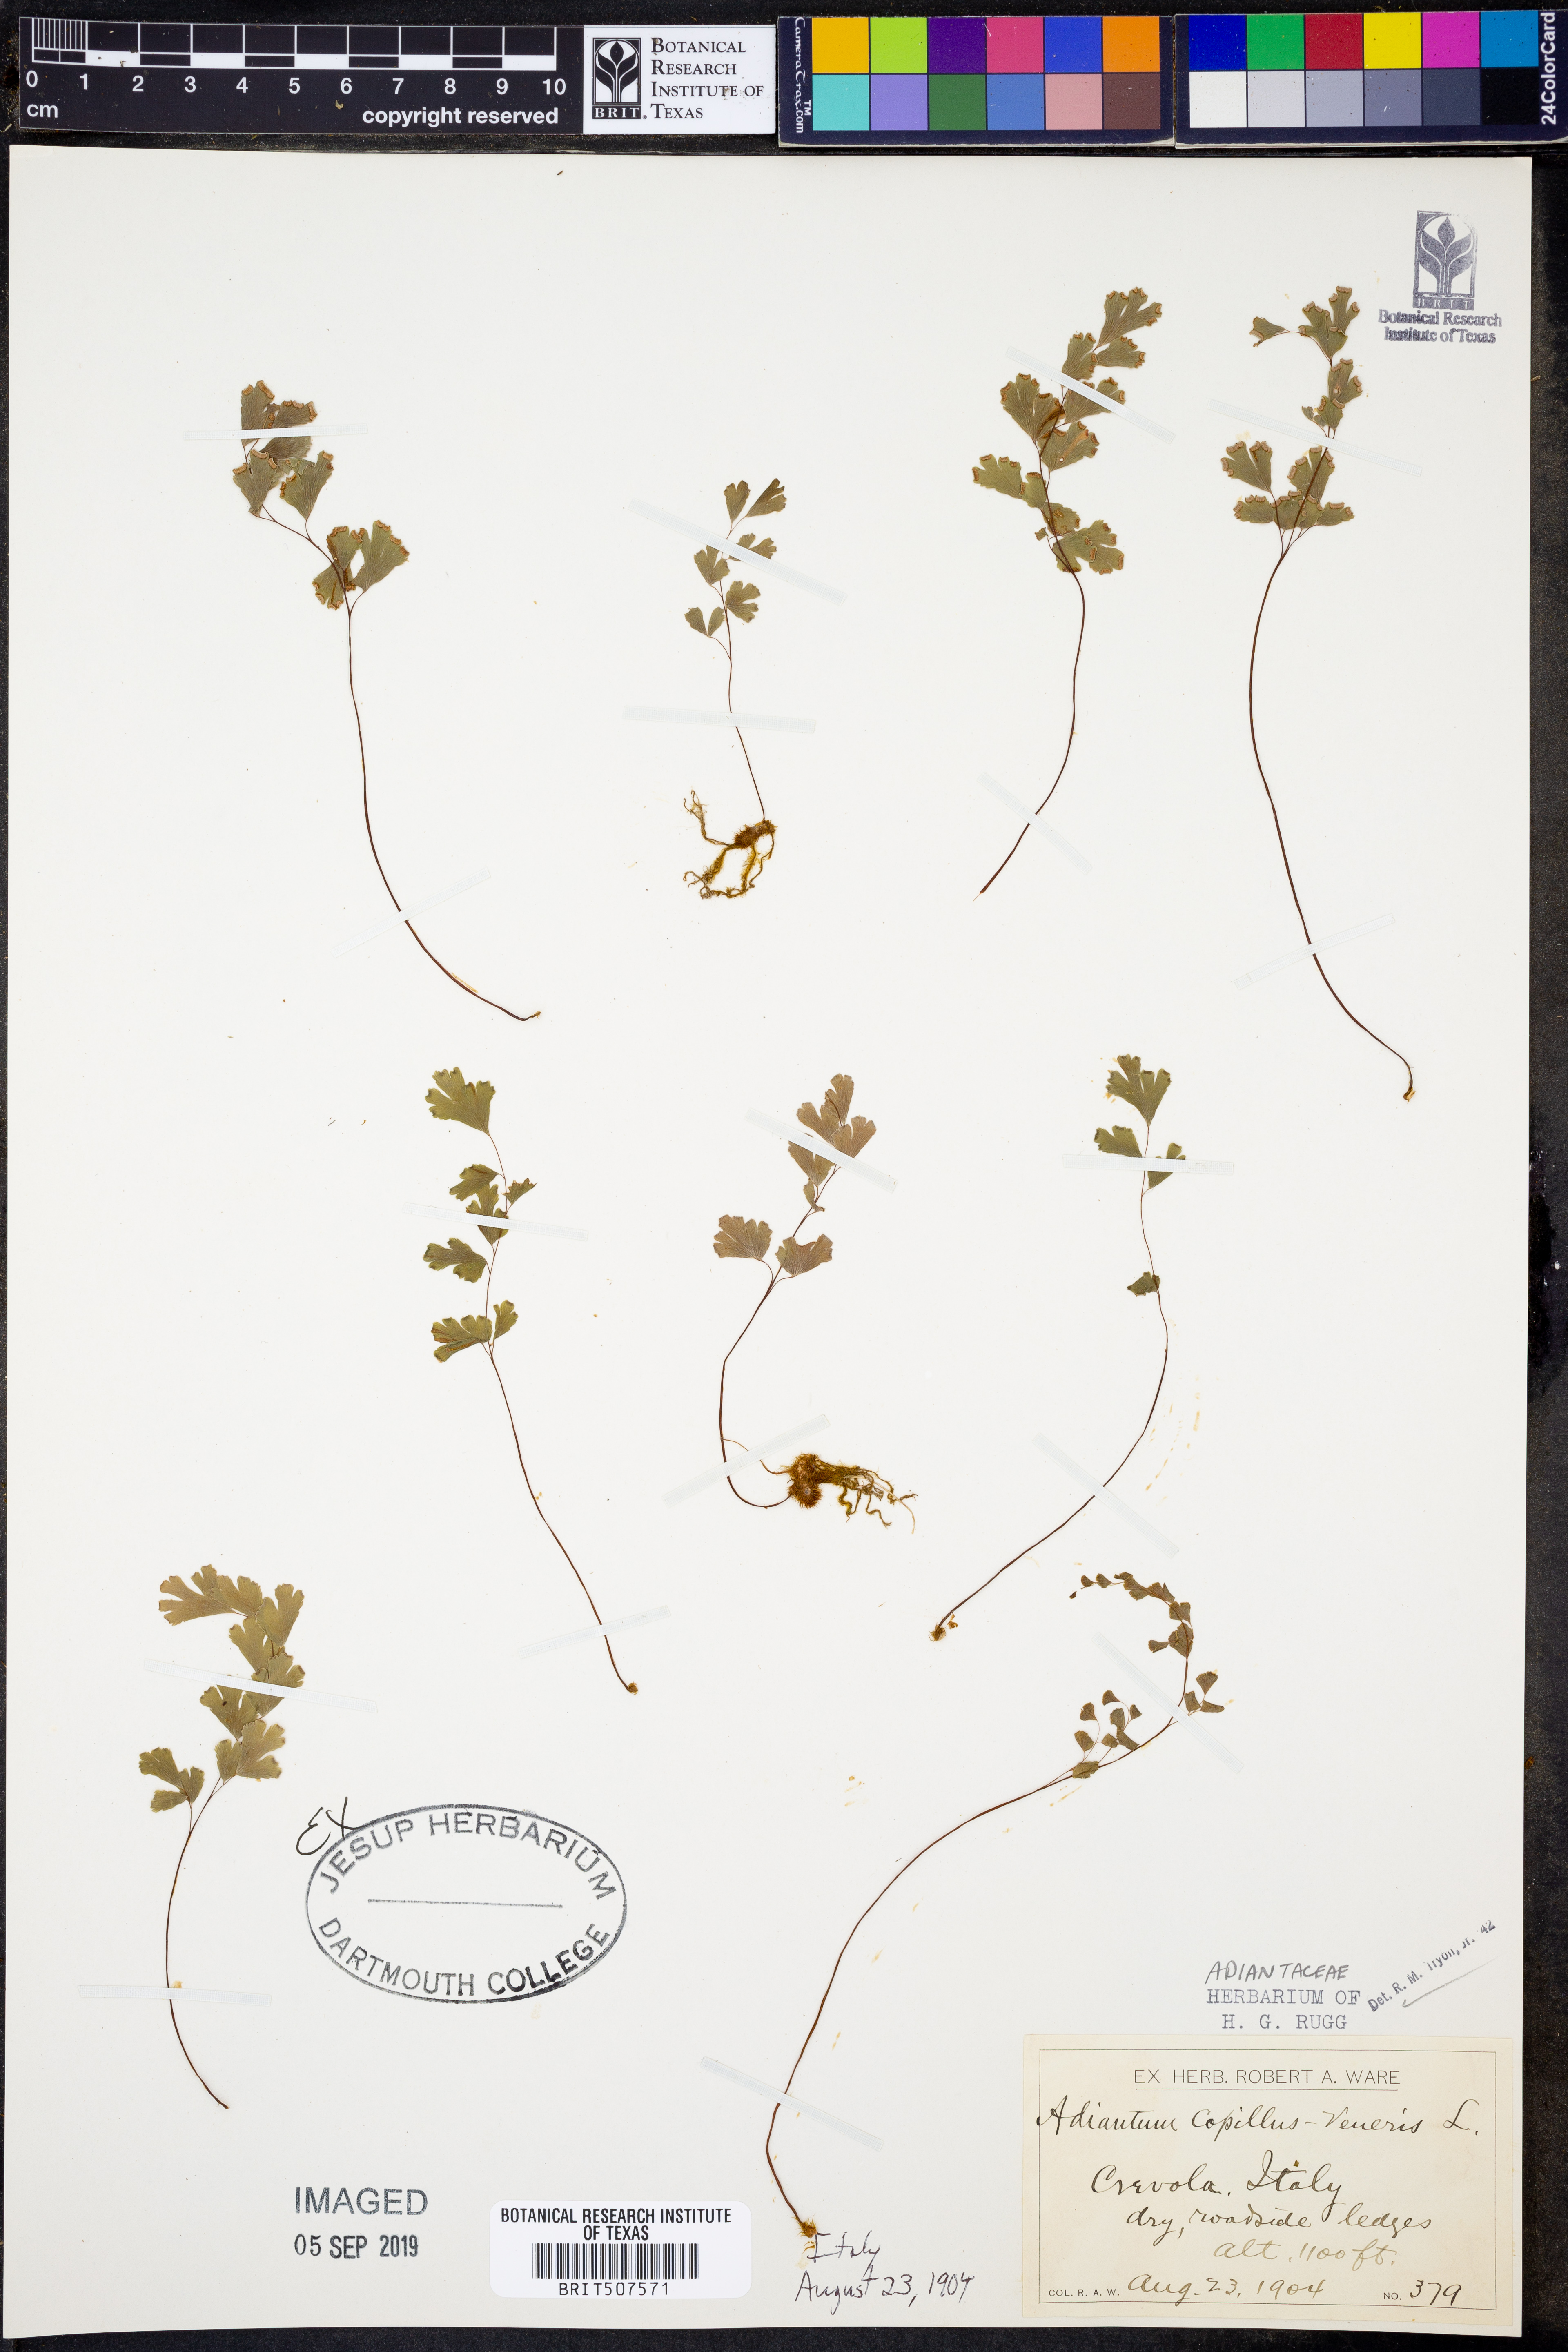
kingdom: Plantae
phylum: Tracheophyta
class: Polypodiopsida
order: Polypodiales
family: Pteridaceae
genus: Adiantum
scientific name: Adiantum capillus-veneris
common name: Maidenhair fern
